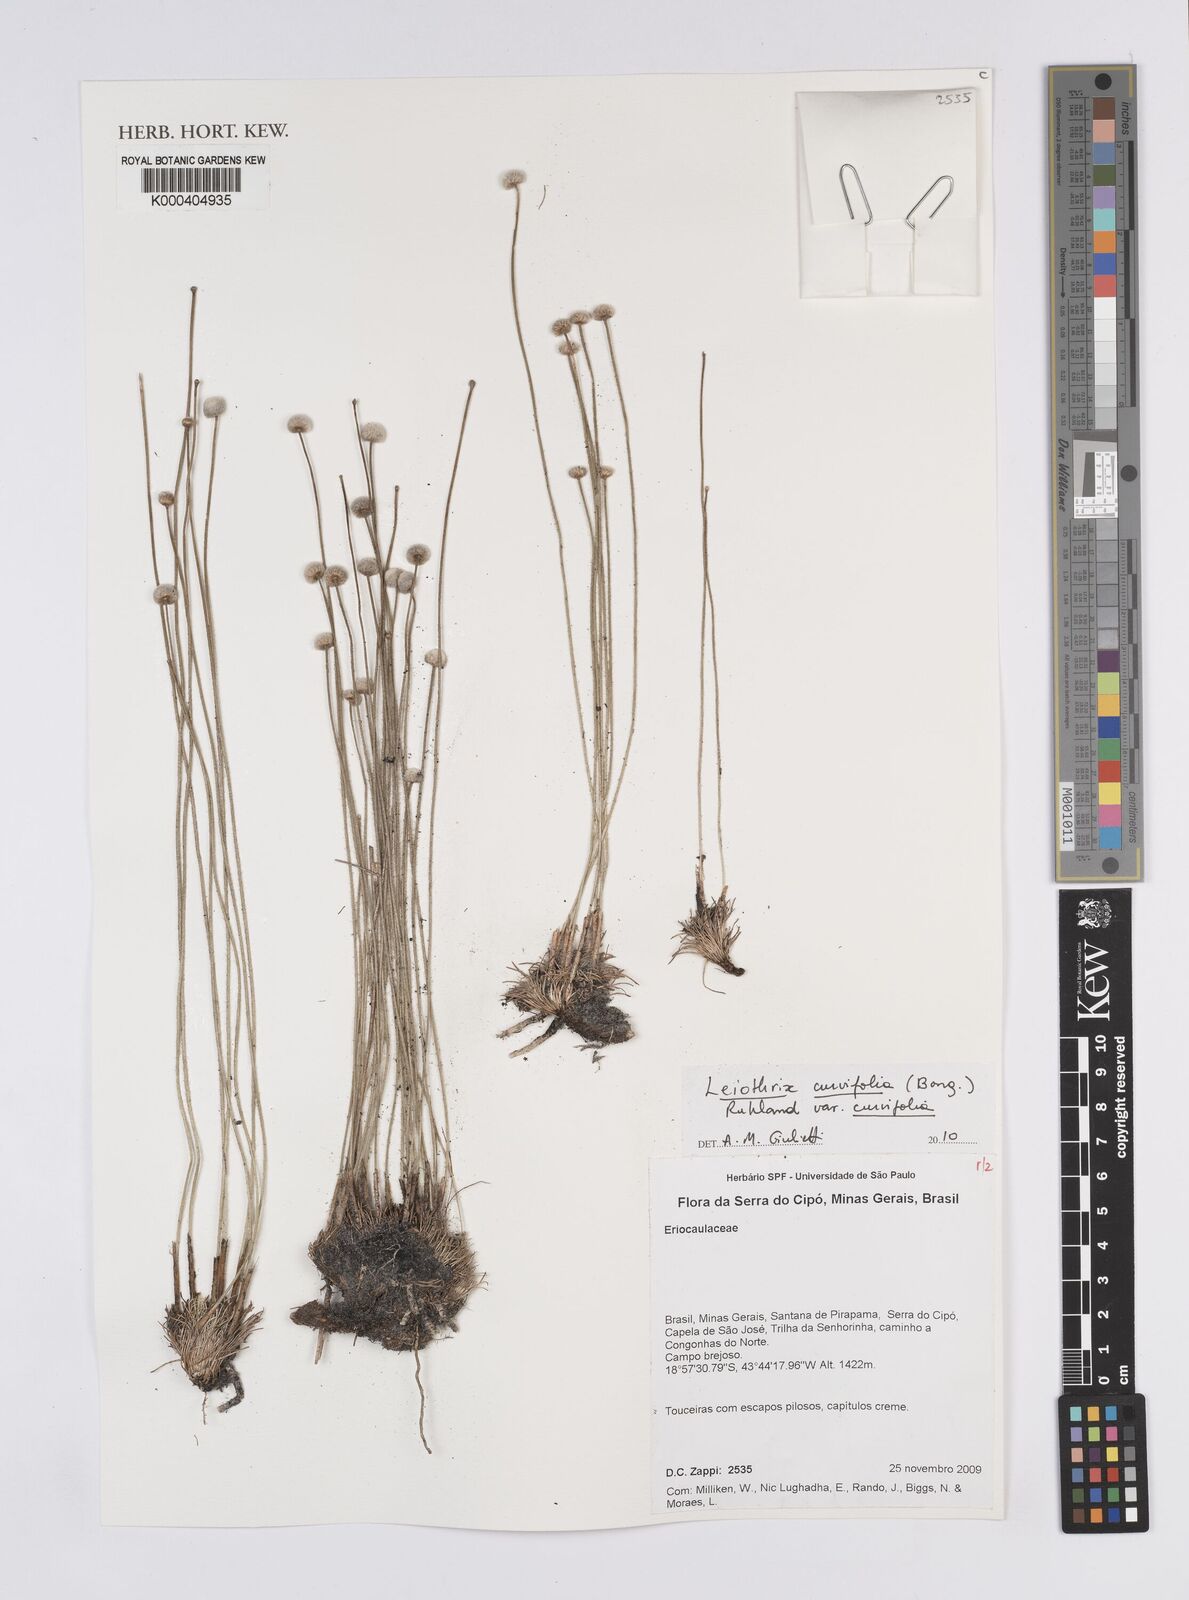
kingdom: Plantae
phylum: Tracheophyta
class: Liliopsida
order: Poales
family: Eriocaulaceae
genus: Leiothrix
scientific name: Leiothrix curvifolia
